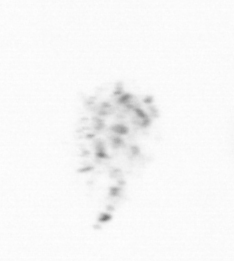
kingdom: Chromista
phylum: Ochrophyta
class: Bacillariophyceae
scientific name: Bacillariophyceae
